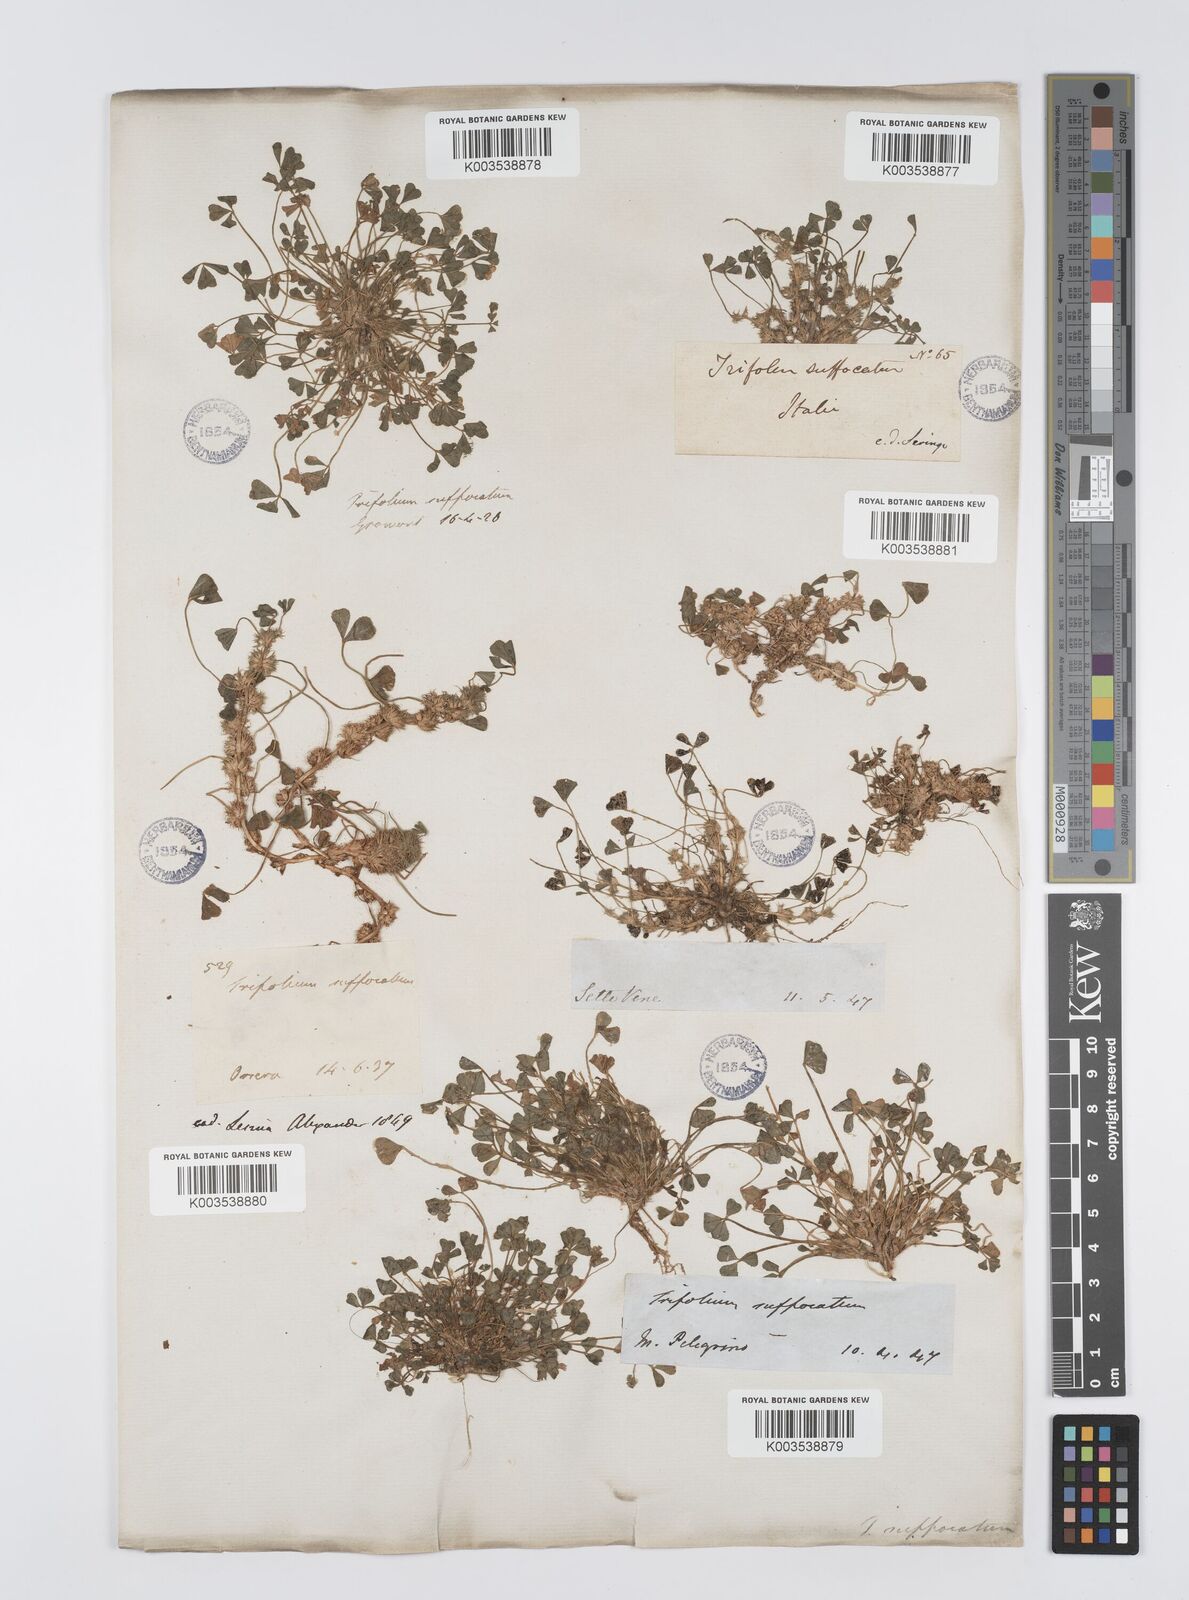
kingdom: Plantae
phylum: Tracheophyta
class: Magnoliopsida
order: Fabales
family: Fabaceae
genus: Trifolium
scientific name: Trifolium suffocatum
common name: Suffocated clover
